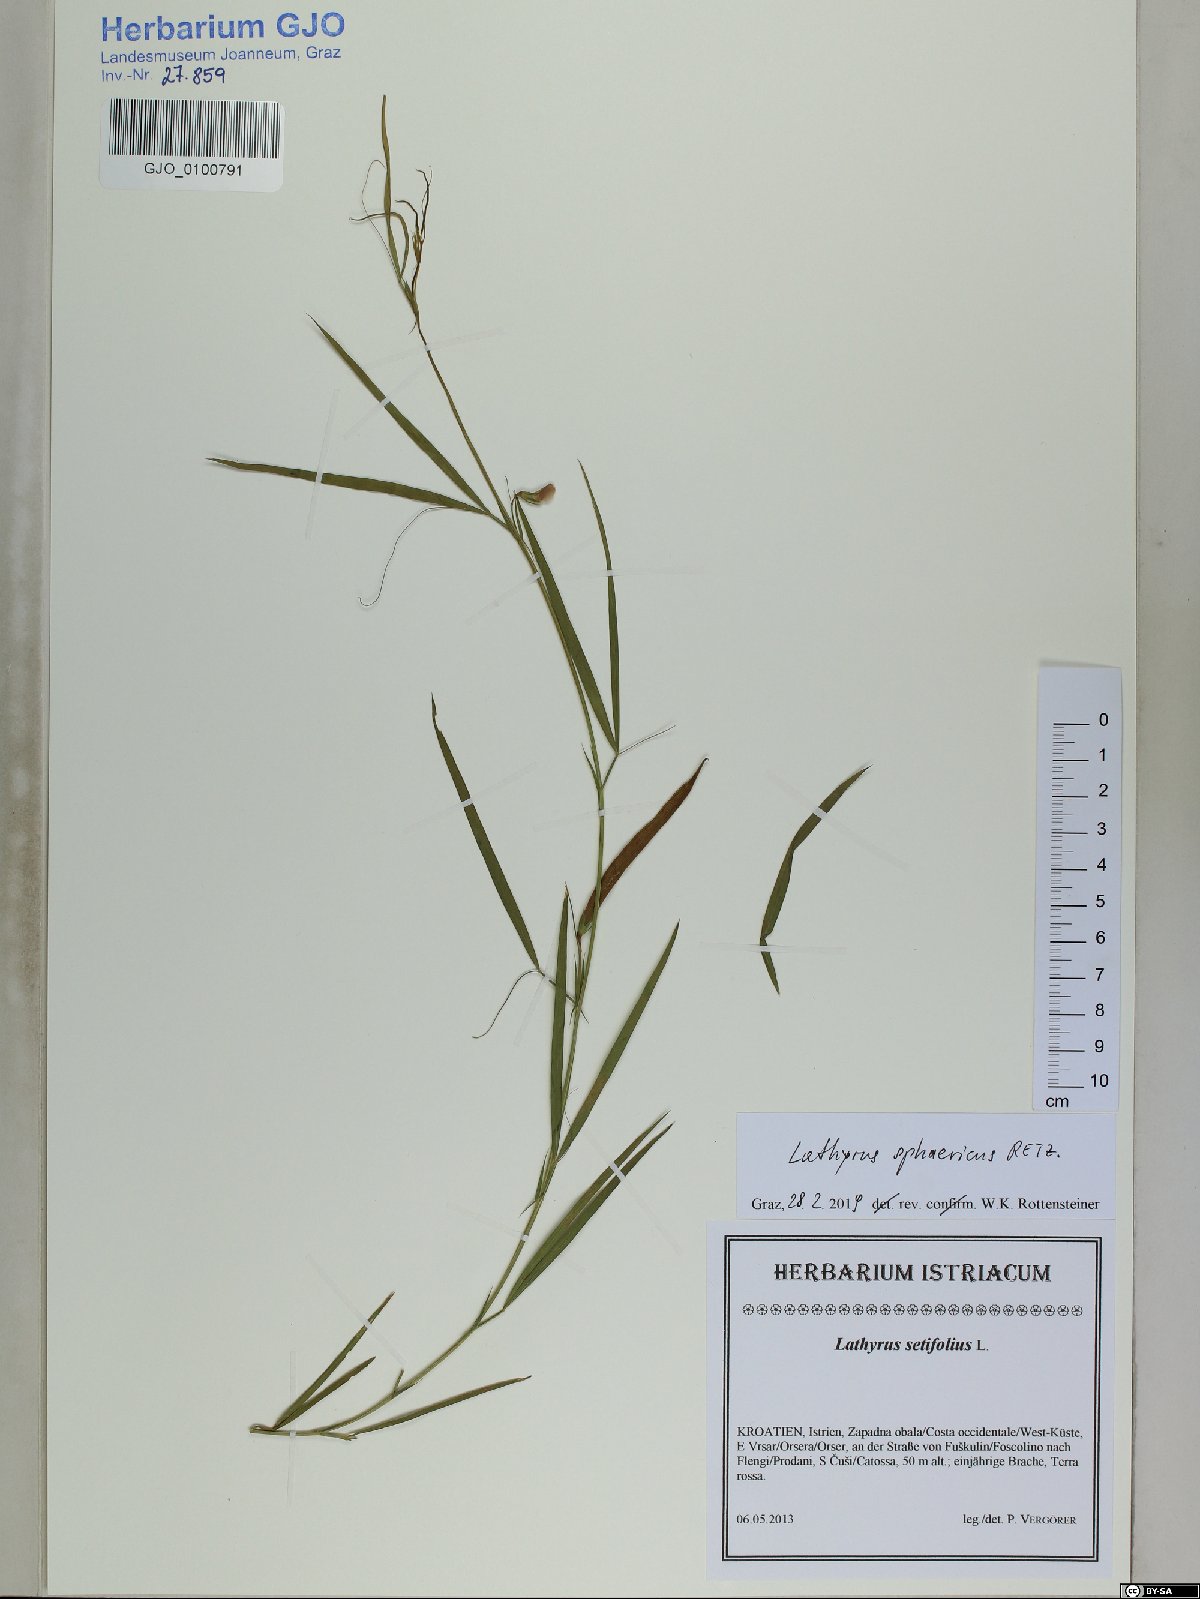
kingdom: Plantae
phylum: Tracheophyta
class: Magnoliopsida
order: Fabales
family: Fabaceae
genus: Lathyrus
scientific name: Lathyrus sphaericus
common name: Grass pea
